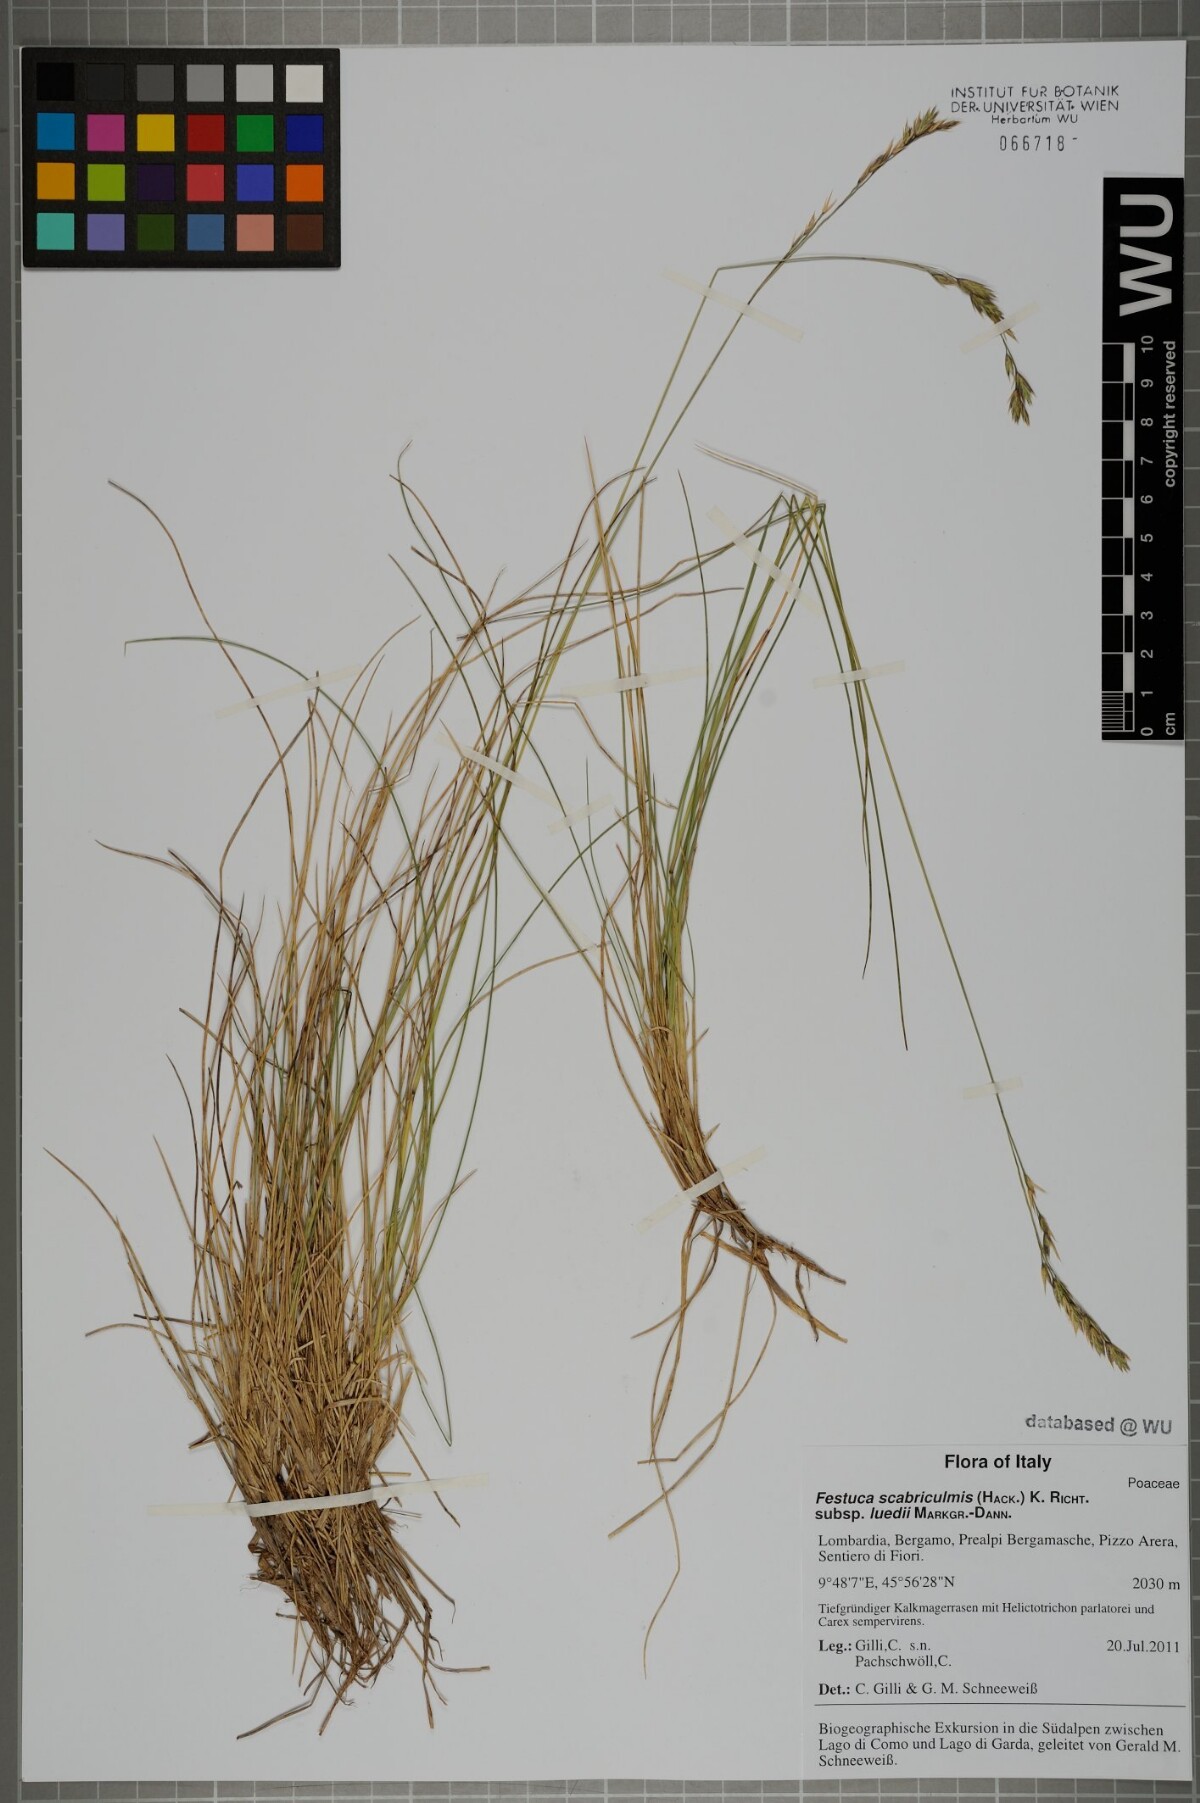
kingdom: Plantae
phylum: Tracheophyta
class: Liliopsida
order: Poales
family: Poaceae
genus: Festuca
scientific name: Festuca scabriculmis
